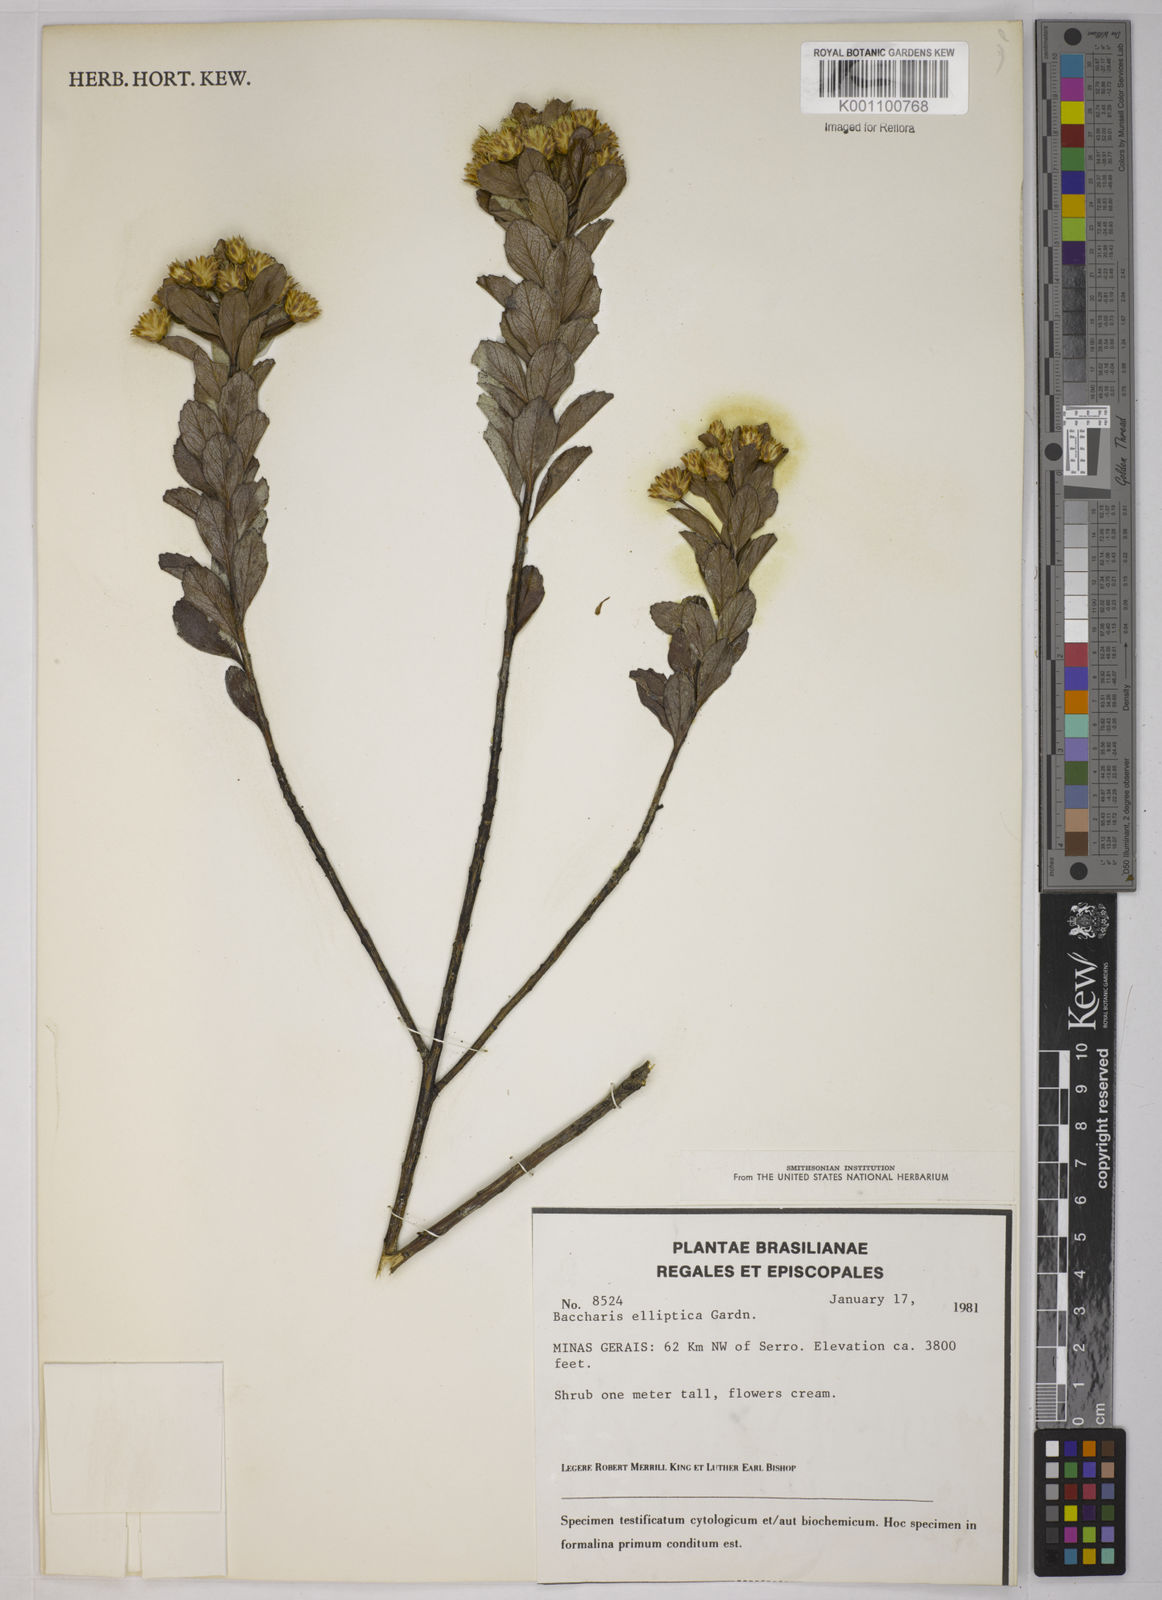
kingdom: Plantae
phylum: Tracheophyta
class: Magnoliopsida
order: Asterales
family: Asteraceae
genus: Baccharis
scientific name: Baccharis elliptica
